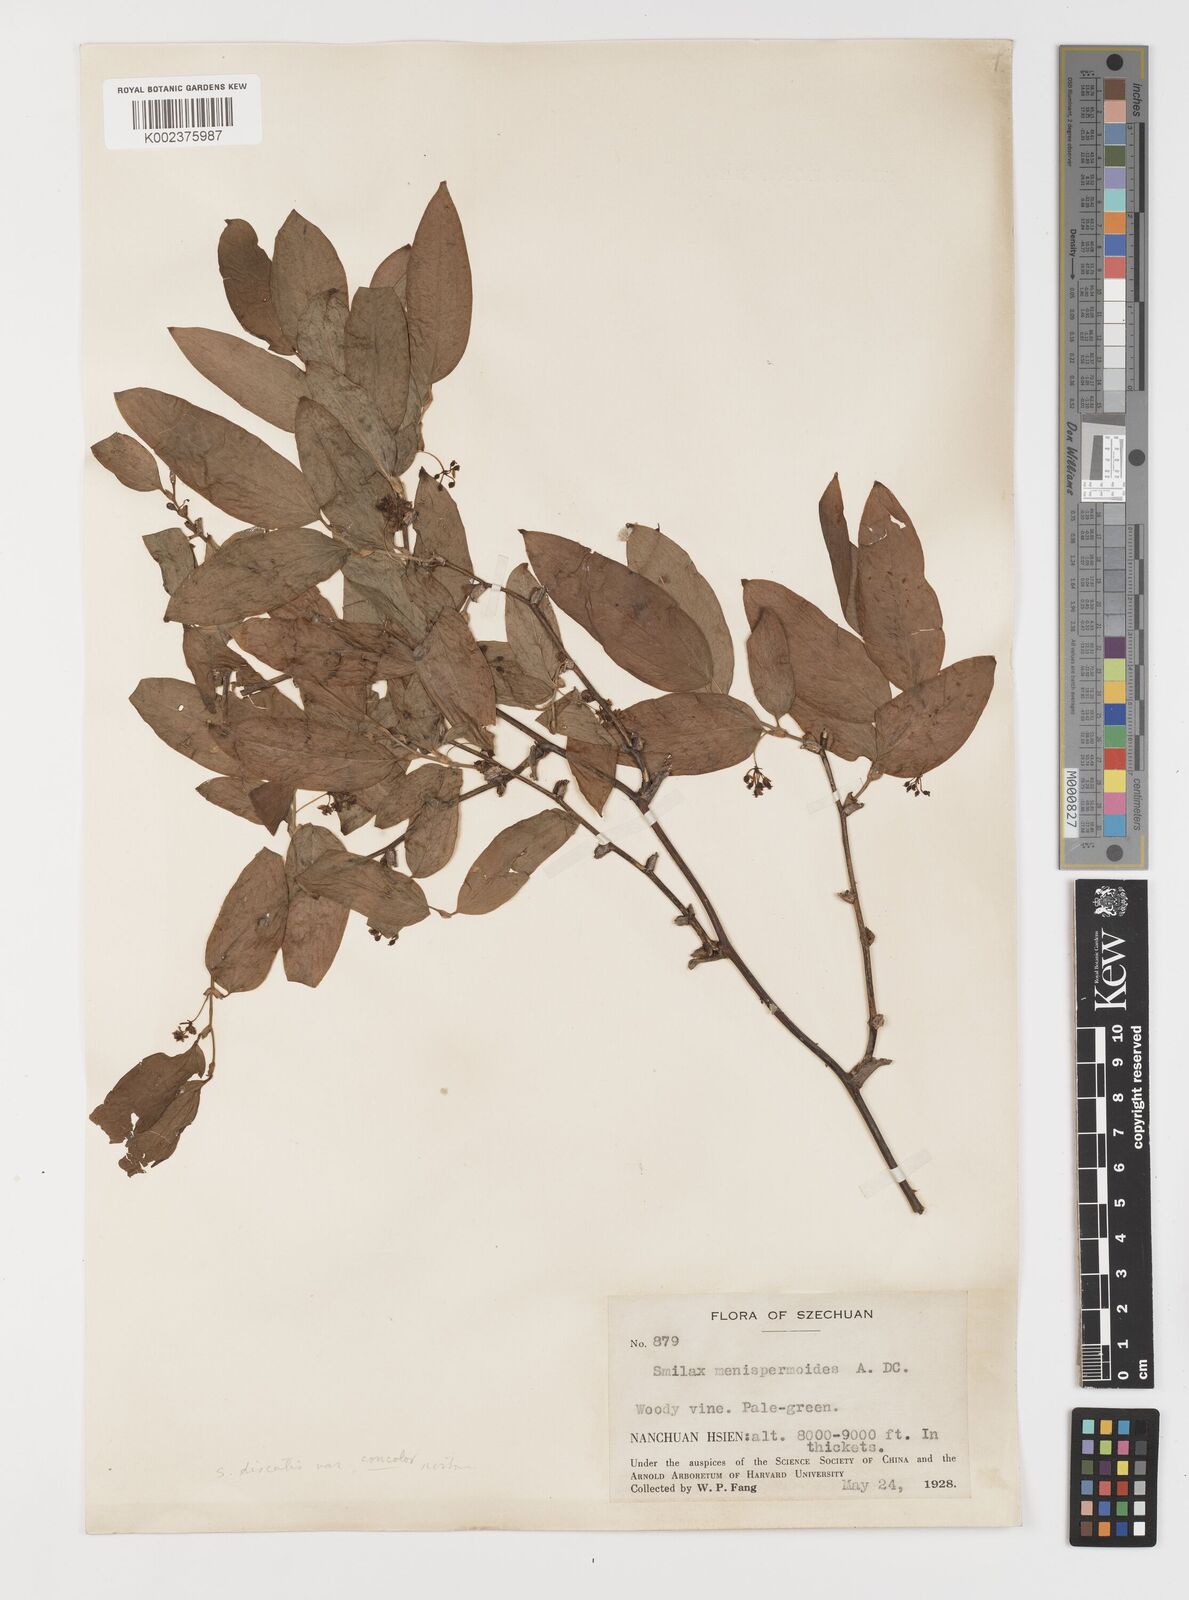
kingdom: Plantae
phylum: Tracheophyta
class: Liliopsida
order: Liliales
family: Smilacaceae
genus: Smilax
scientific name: Smilax discotis
